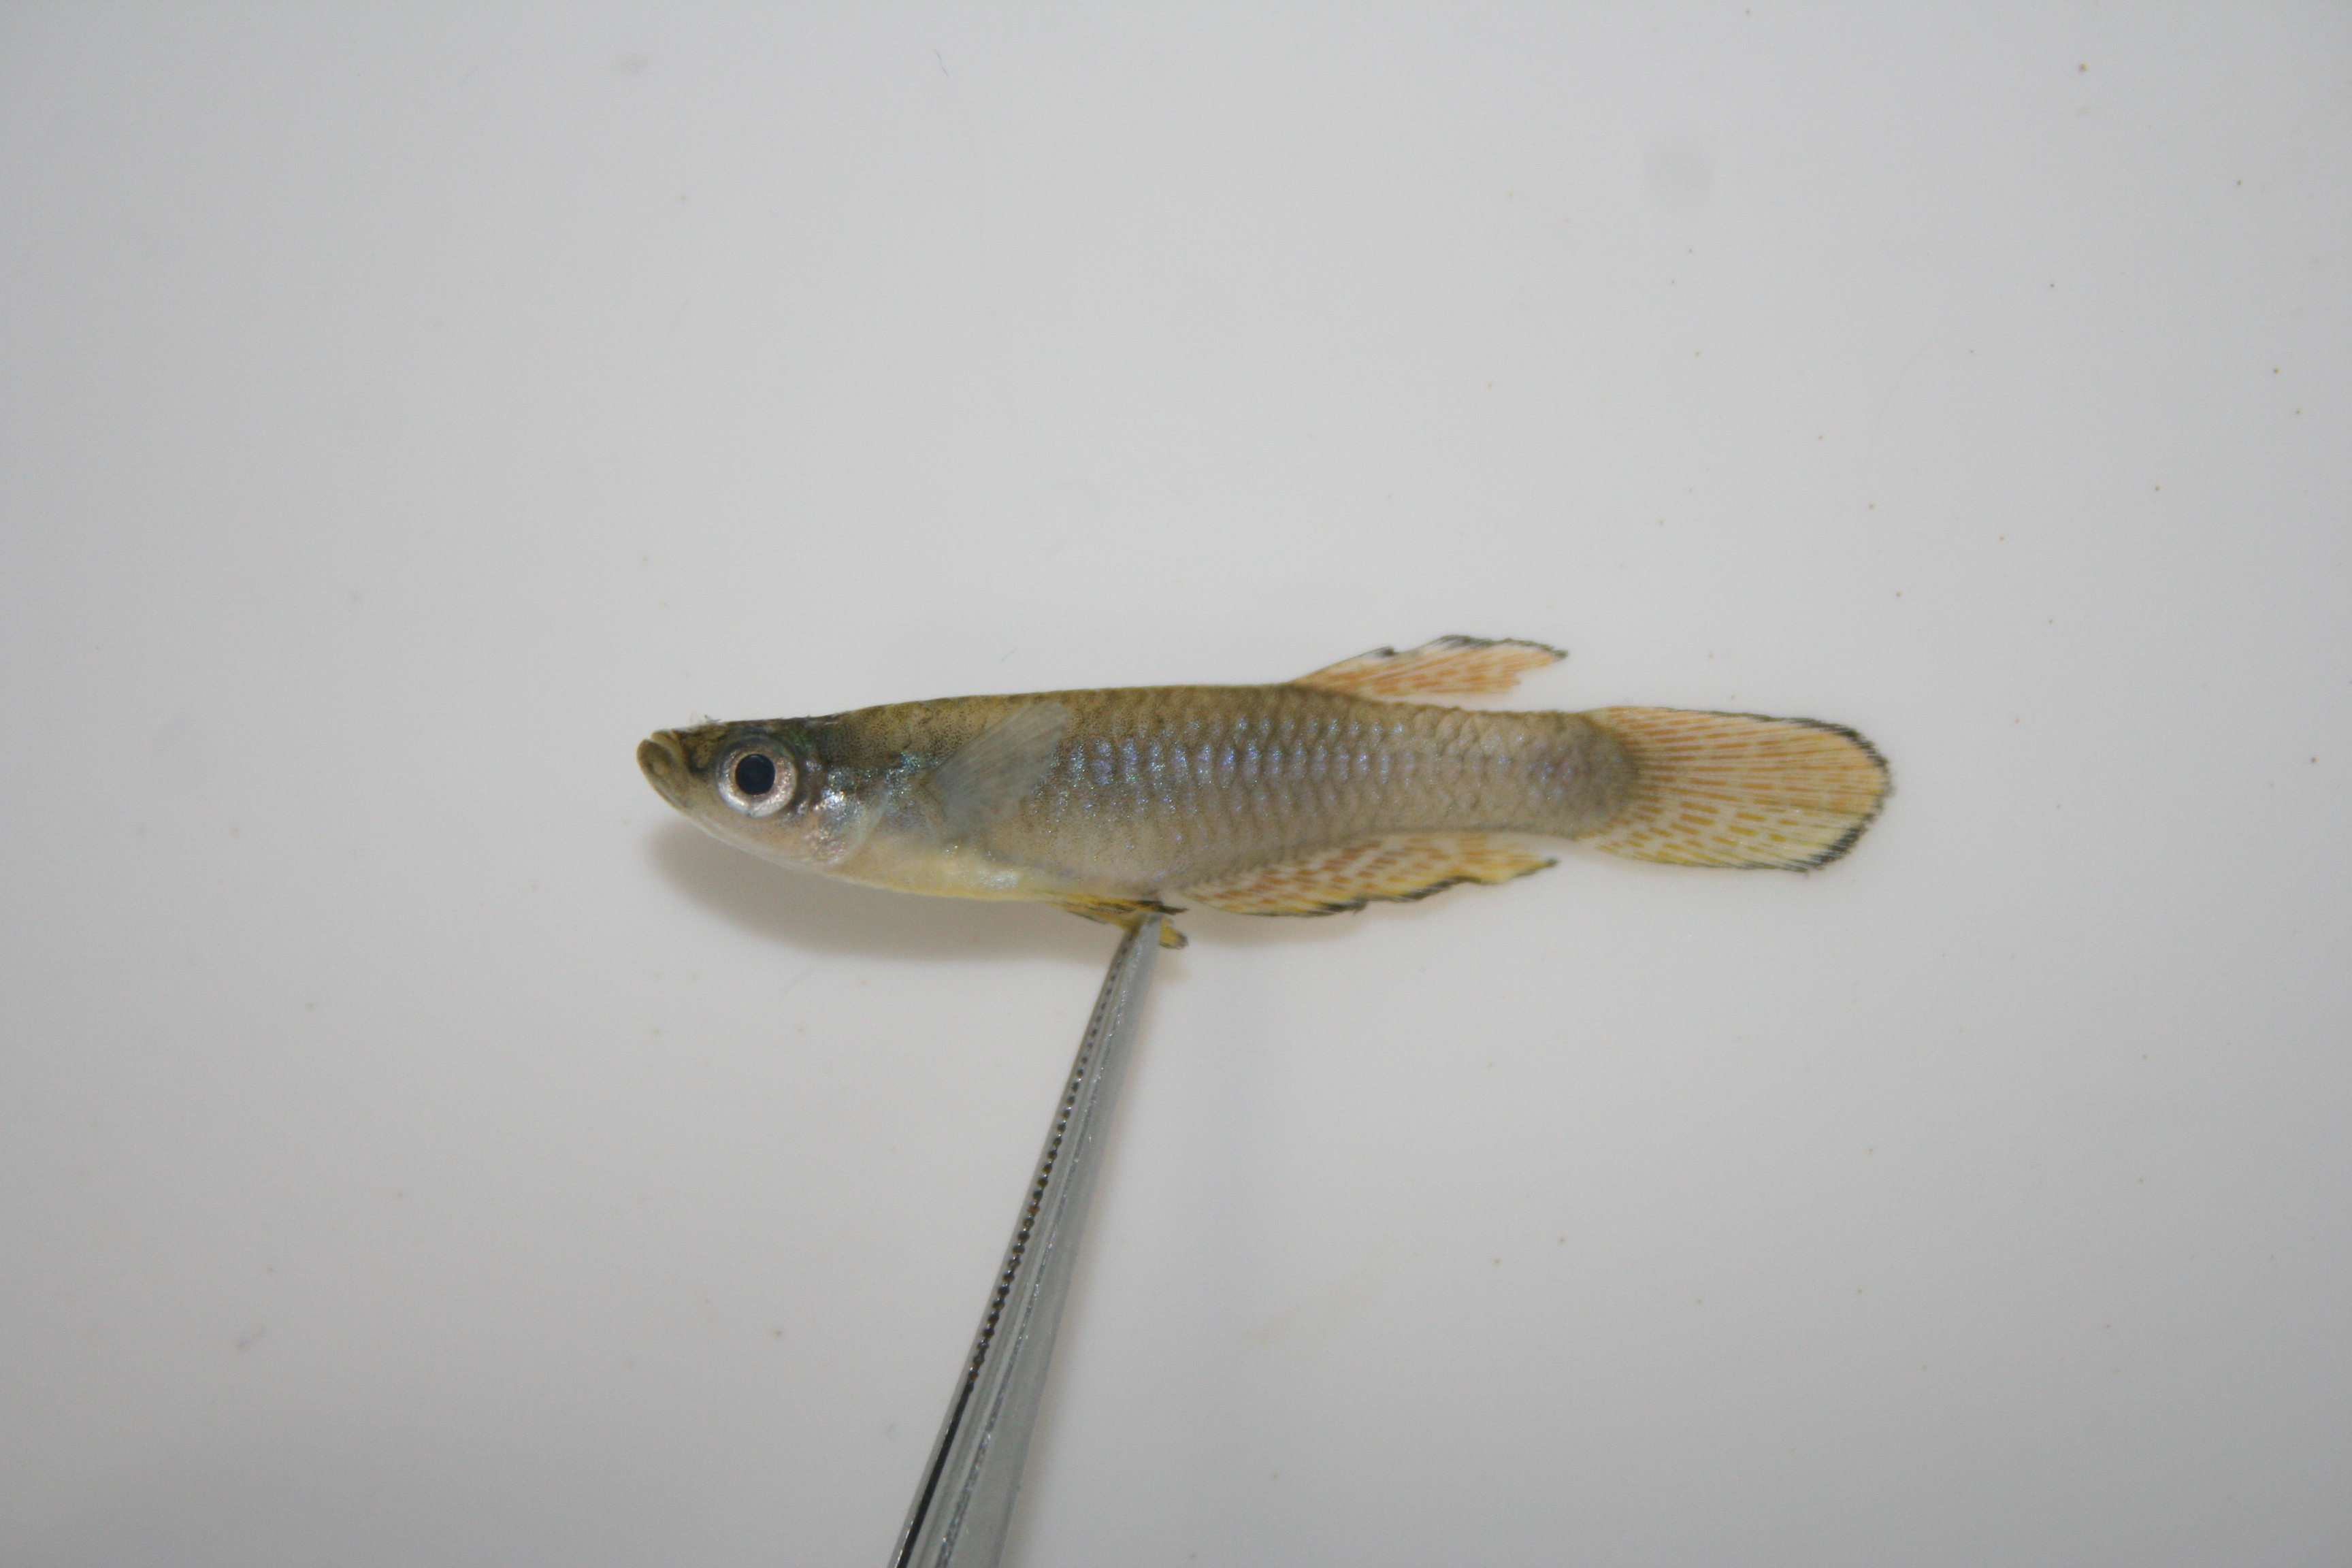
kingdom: Animalia
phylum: Chordata
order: Cyprinodontiformes
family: Poeciliidae
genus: Aplocheilichthys
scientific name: Aplocheilichthys
